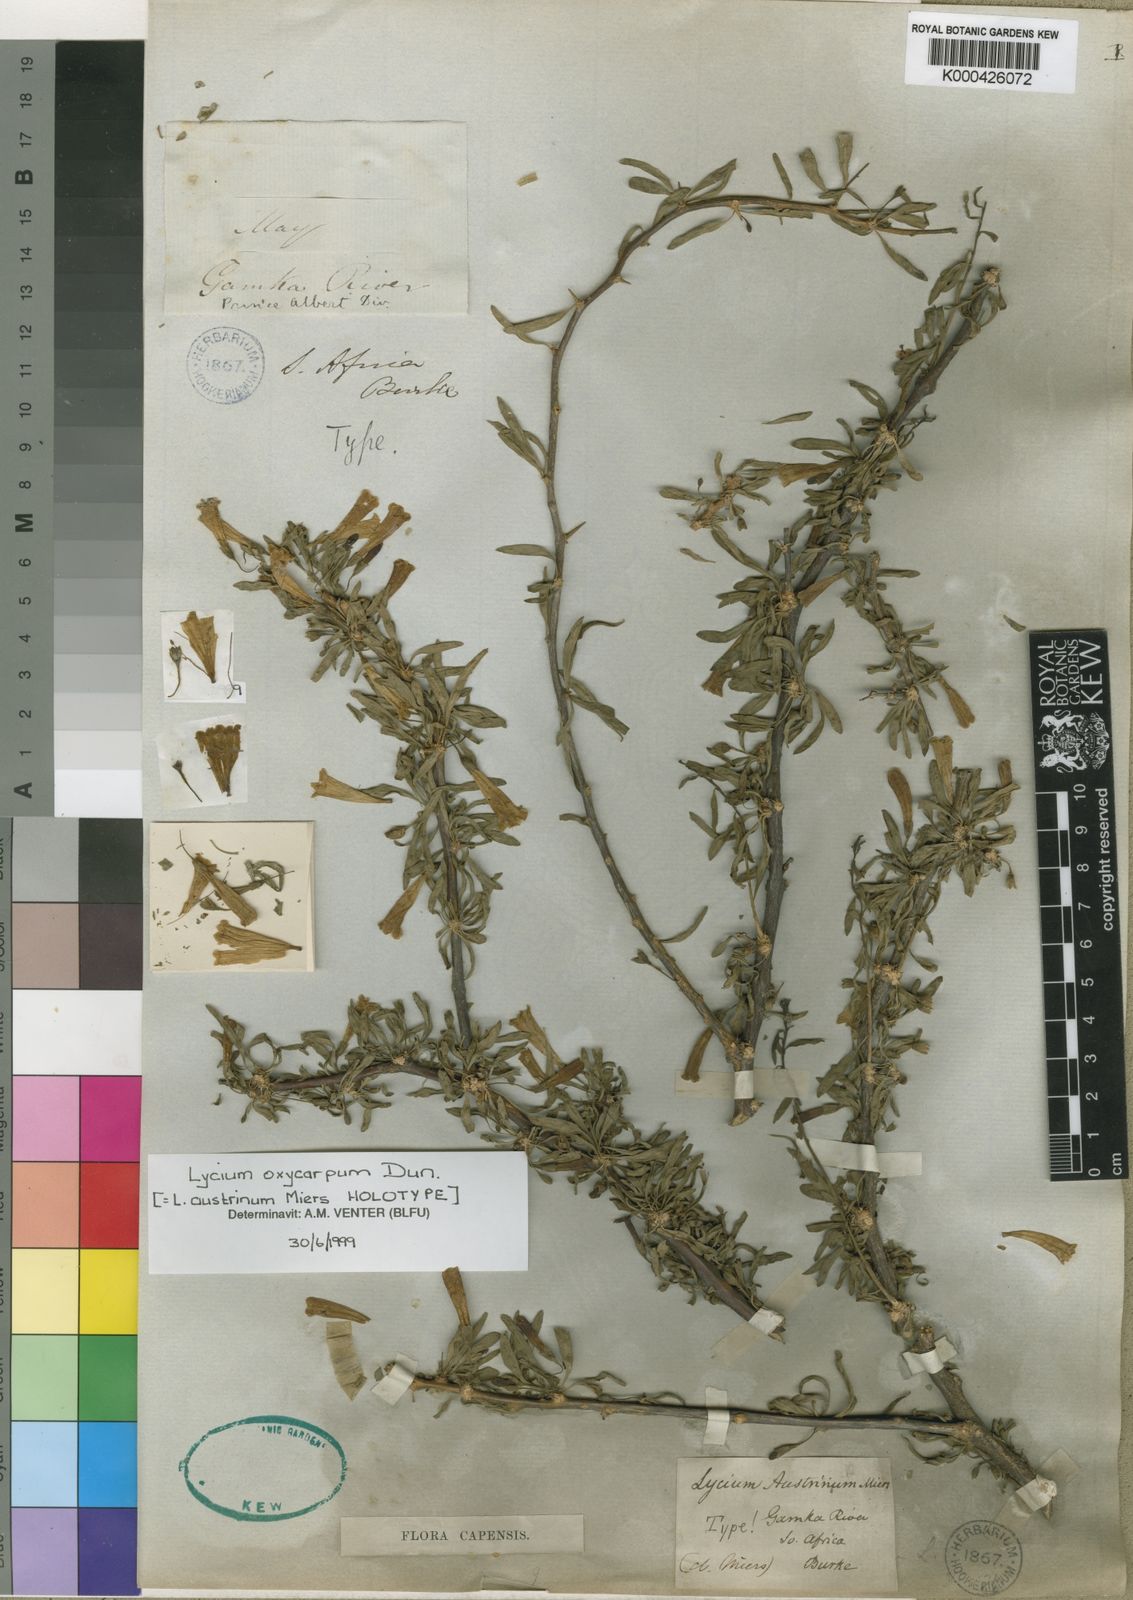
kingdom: Plantae
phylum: Tracheophyta
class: Magnoliopsida
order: Solanales
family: Solanaceae
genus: Lycium
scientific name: Lycium oxycarpum
